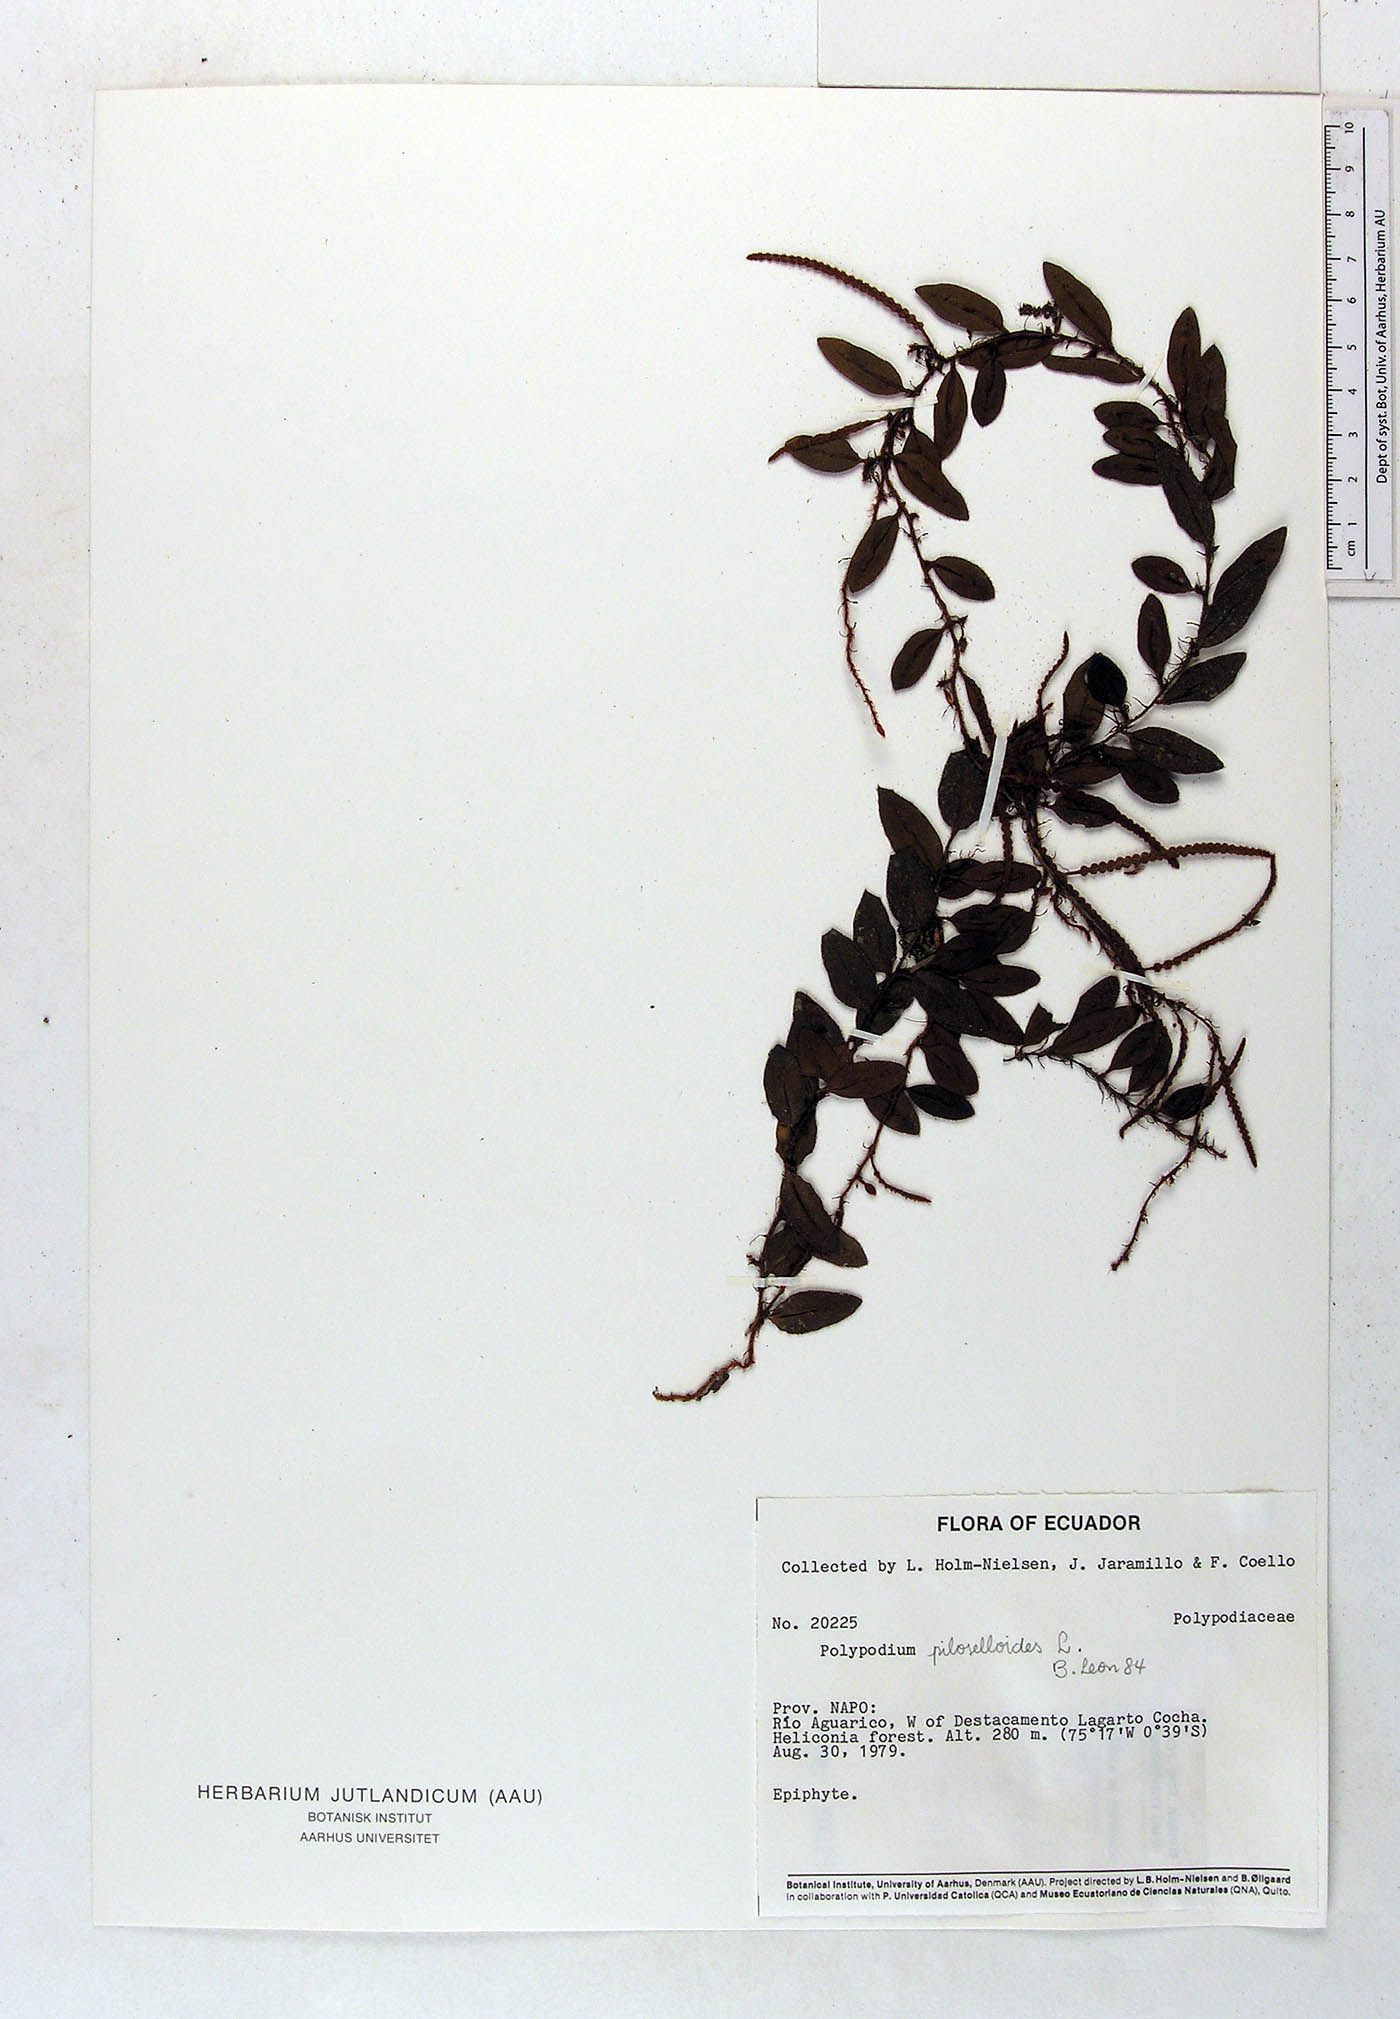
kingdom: Plantae
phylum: Tracheophyta
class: Polypodiopsida
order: Polypodiales
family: Polypodiaceae
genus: Microgramma
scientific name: Microgramma piloselloides
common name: Hairy snakefern
